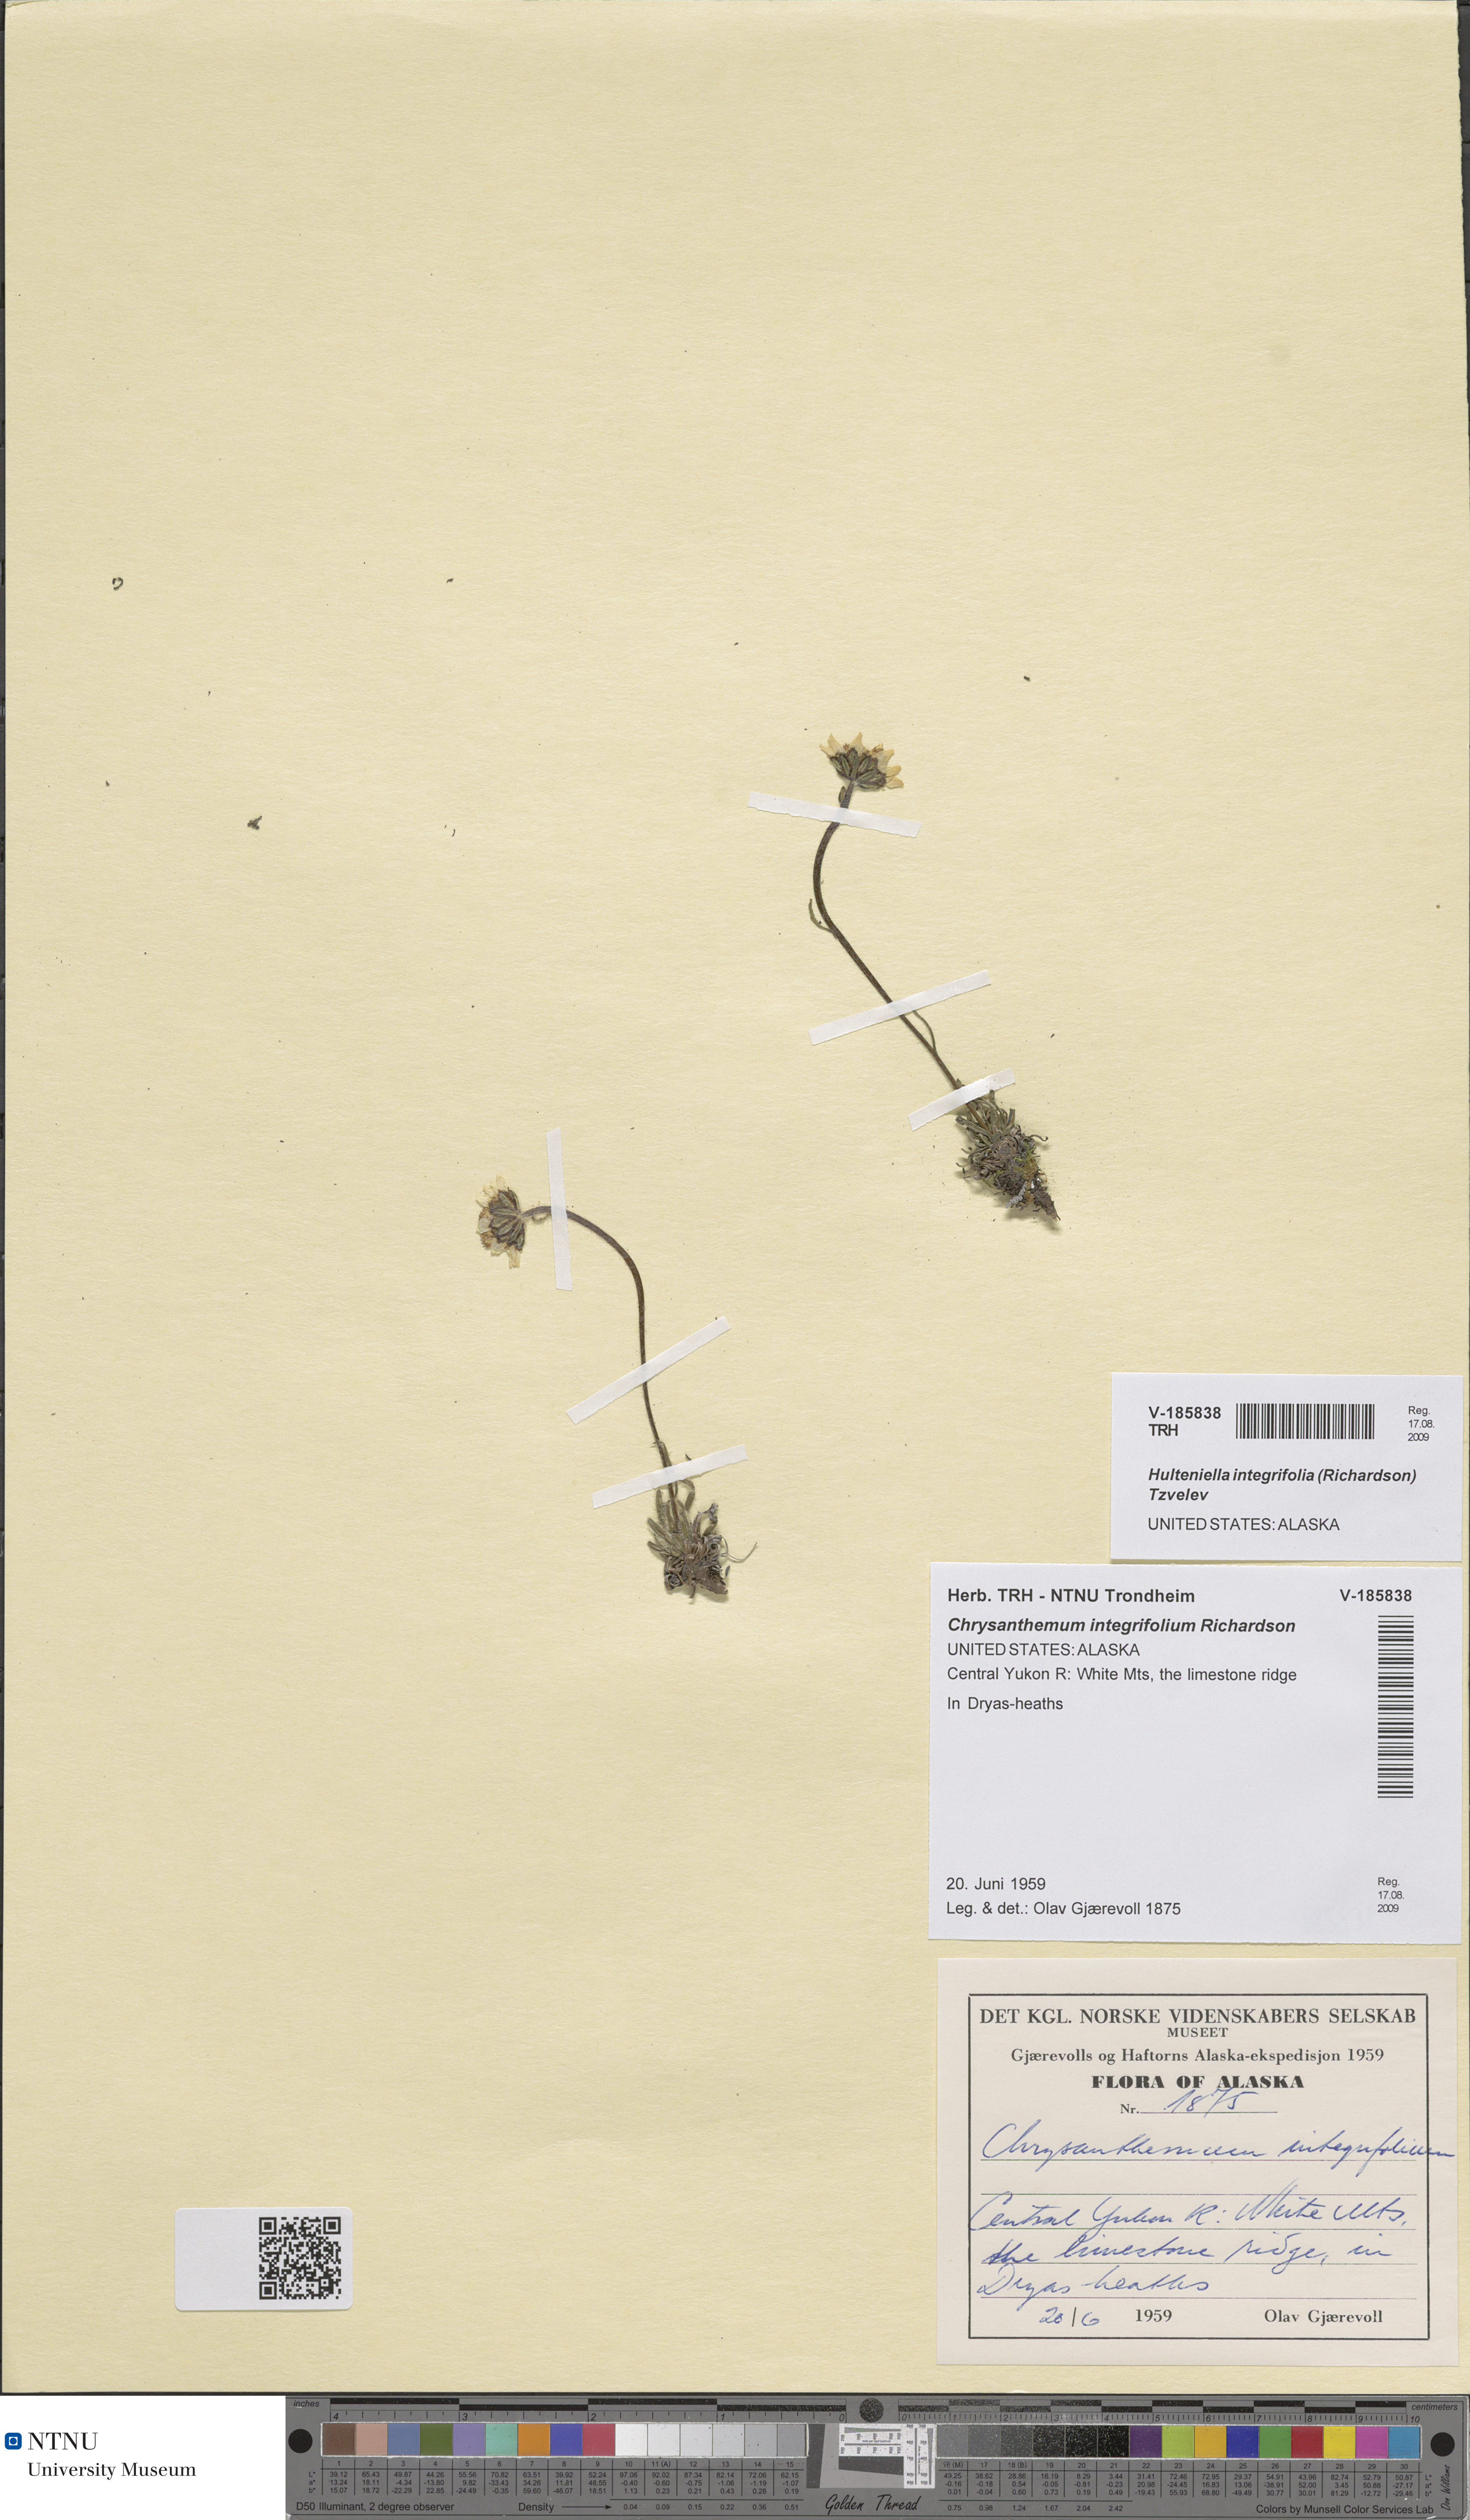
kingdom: Plantae
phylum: Tracheophyta
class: Magnoliopsida
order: Asterales
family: Asteraceae
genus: Arctanthemum
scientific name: Arctanthemum integrifolium
